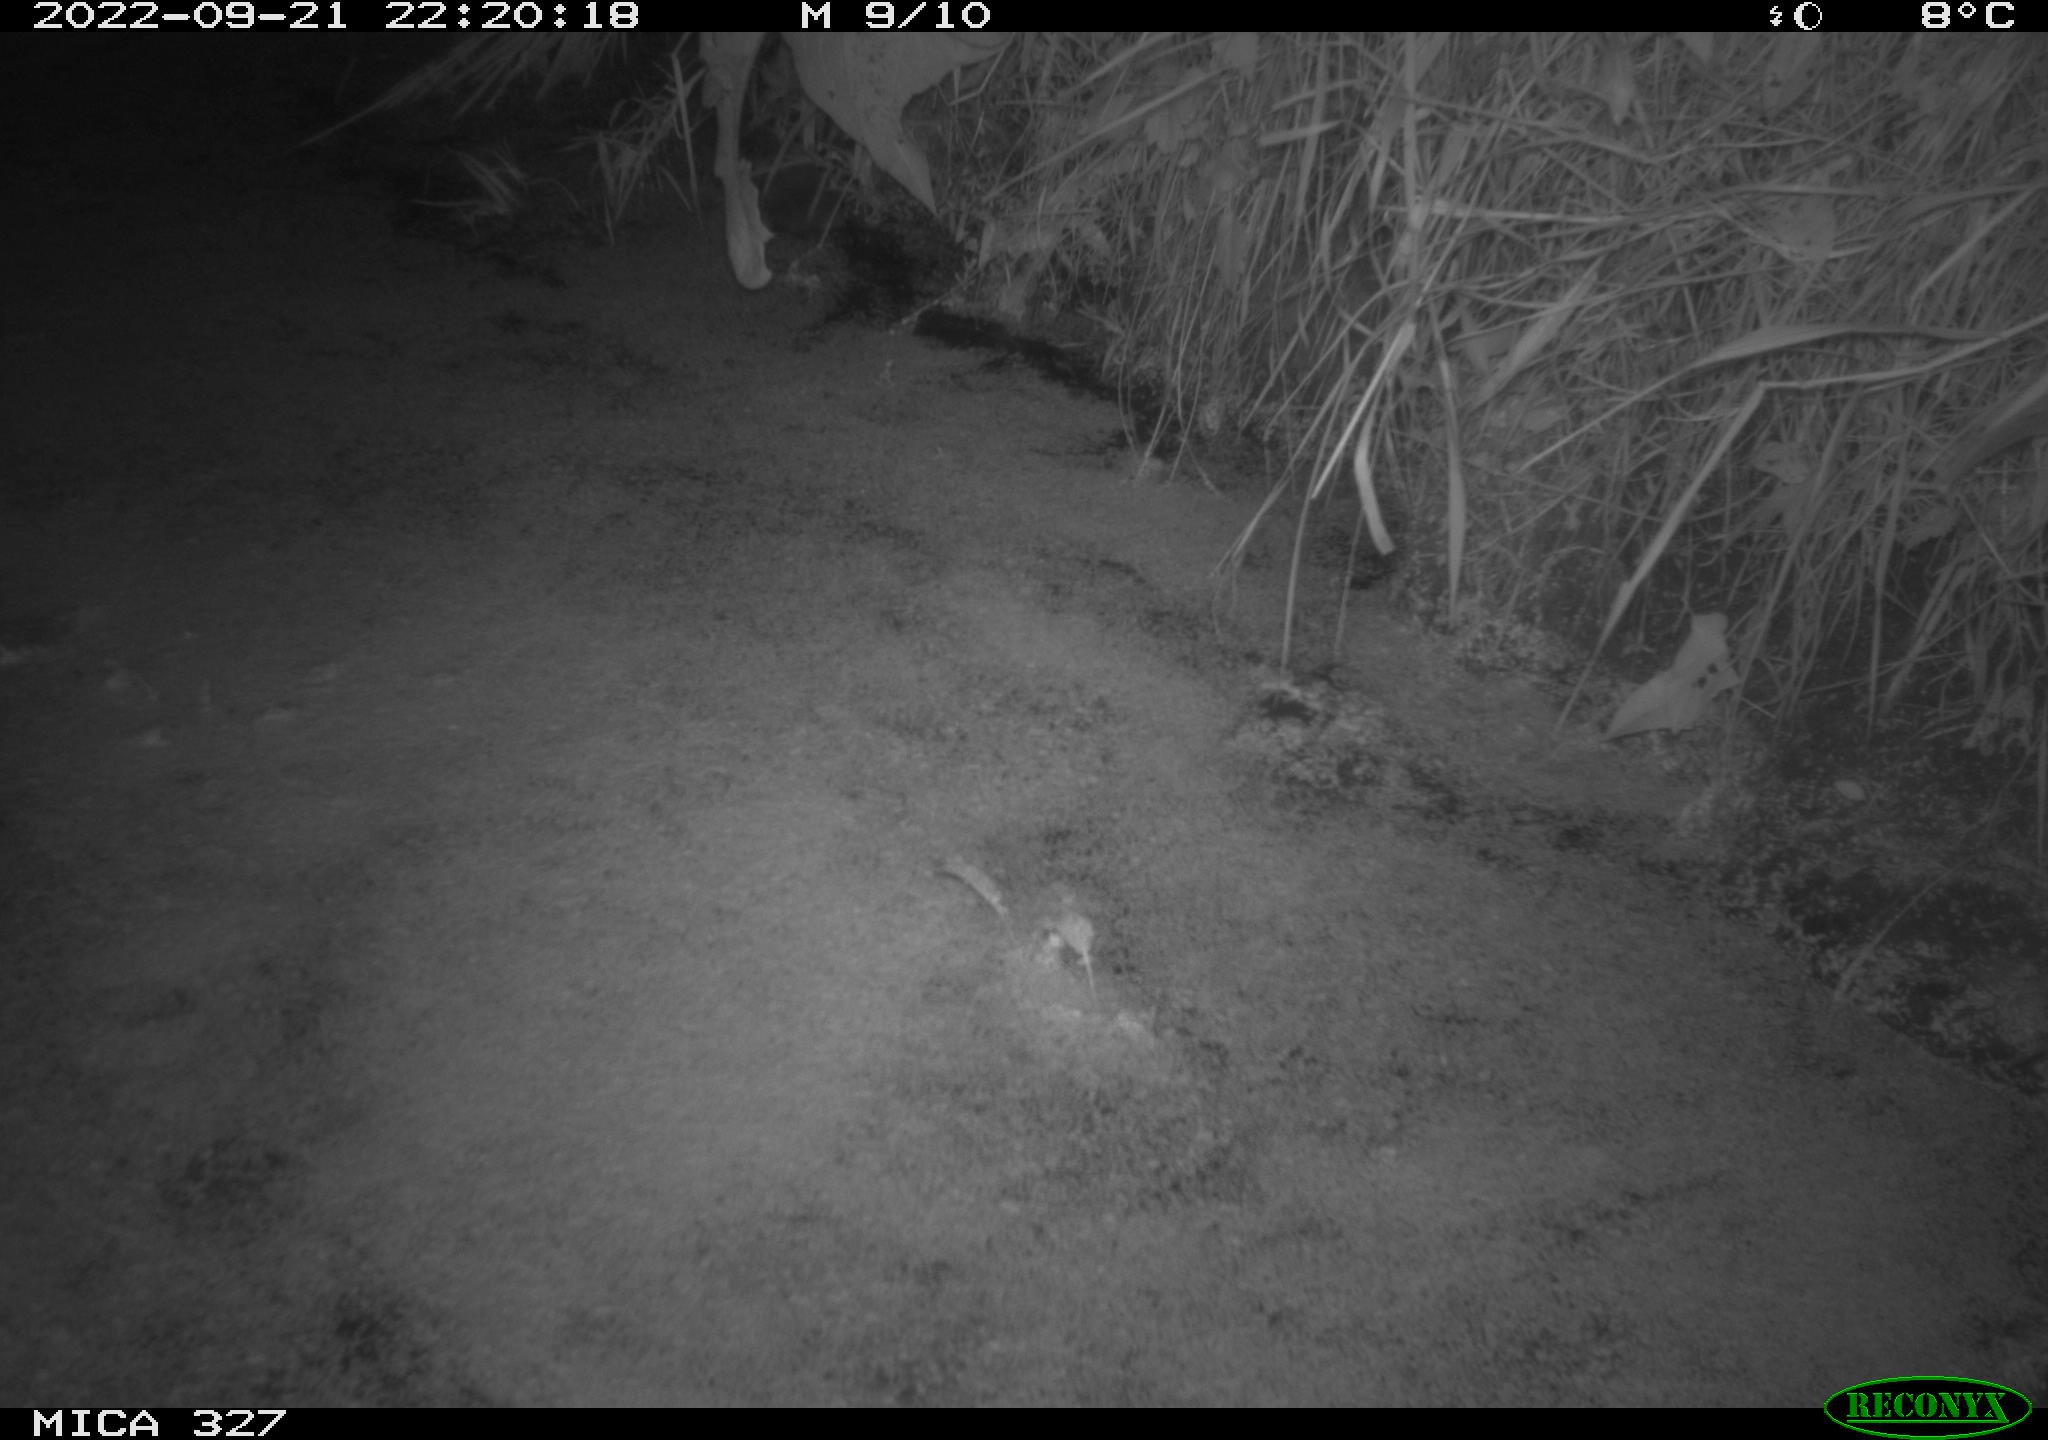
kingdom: Animalia
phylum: Chordata
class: Mammalia
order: Rodentia
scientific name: Rodentia
